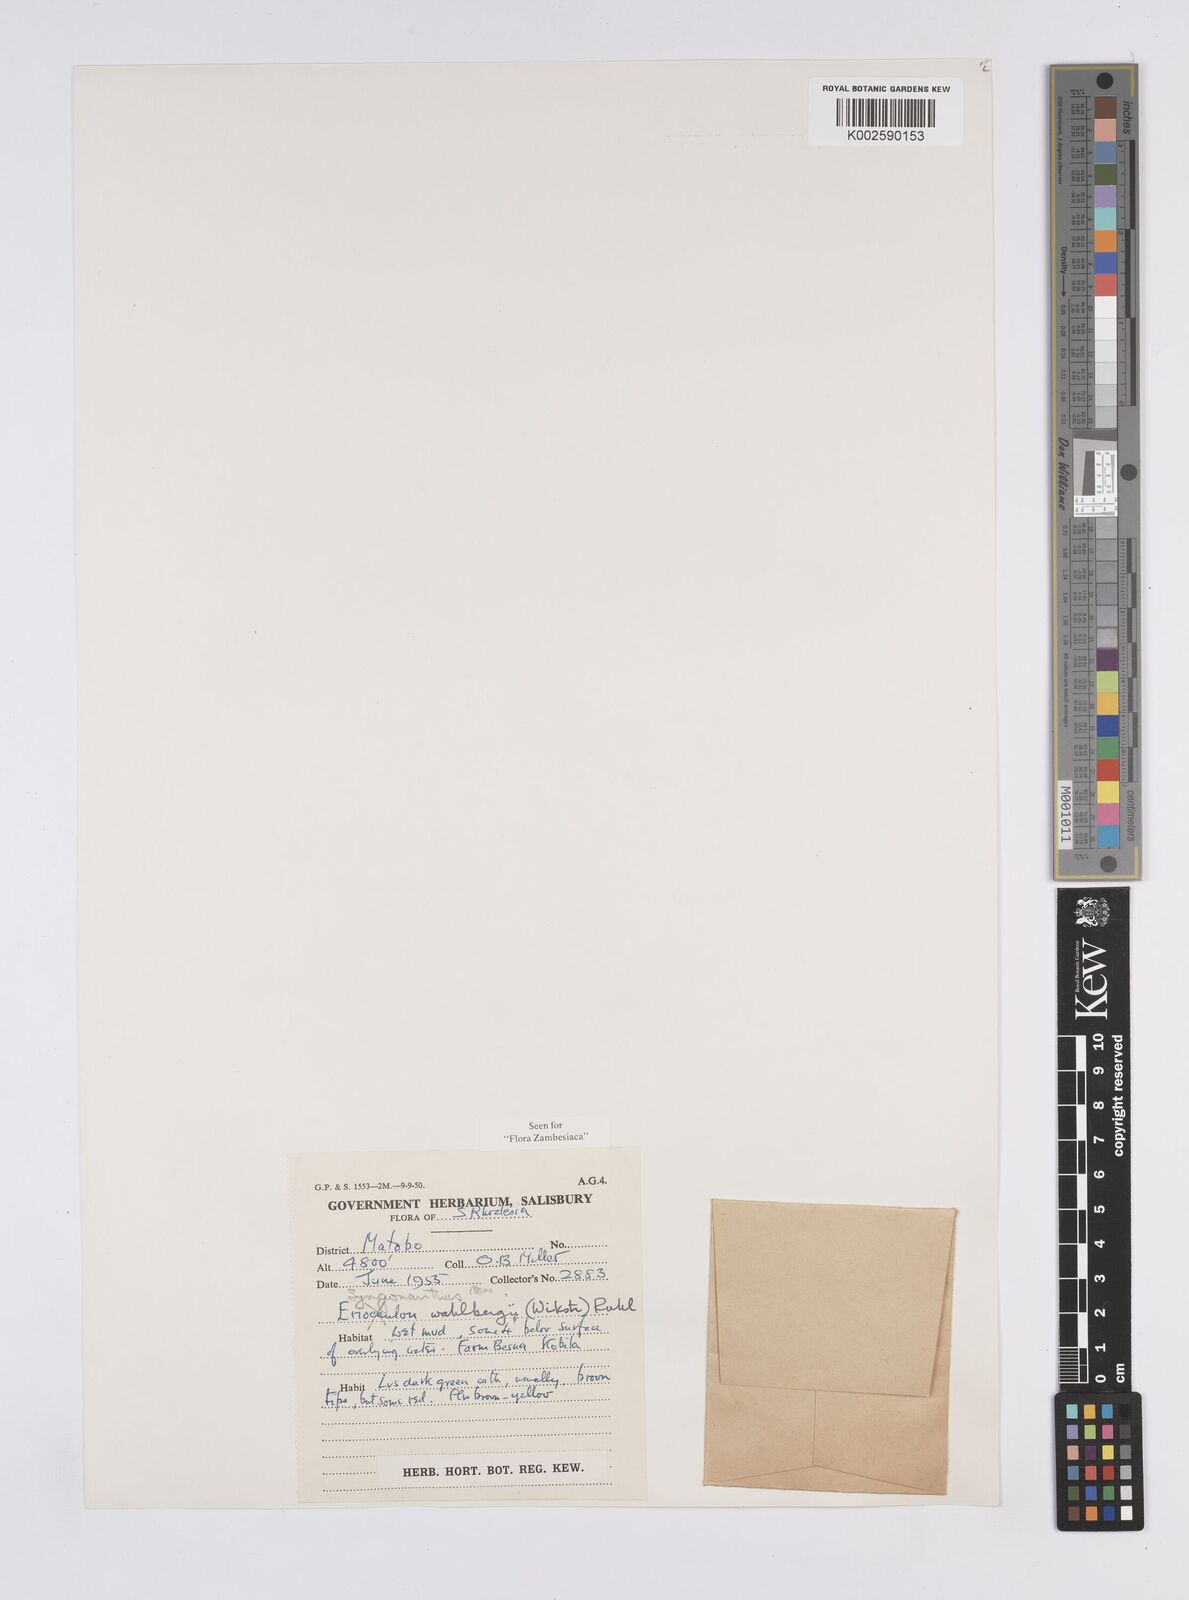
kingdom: Plantae
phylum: Tracheophyta
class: Liliopsida
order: Poales
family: Eriocaulaceae
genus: Syngonanthus
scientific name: Syngonanthus wahlbergii
